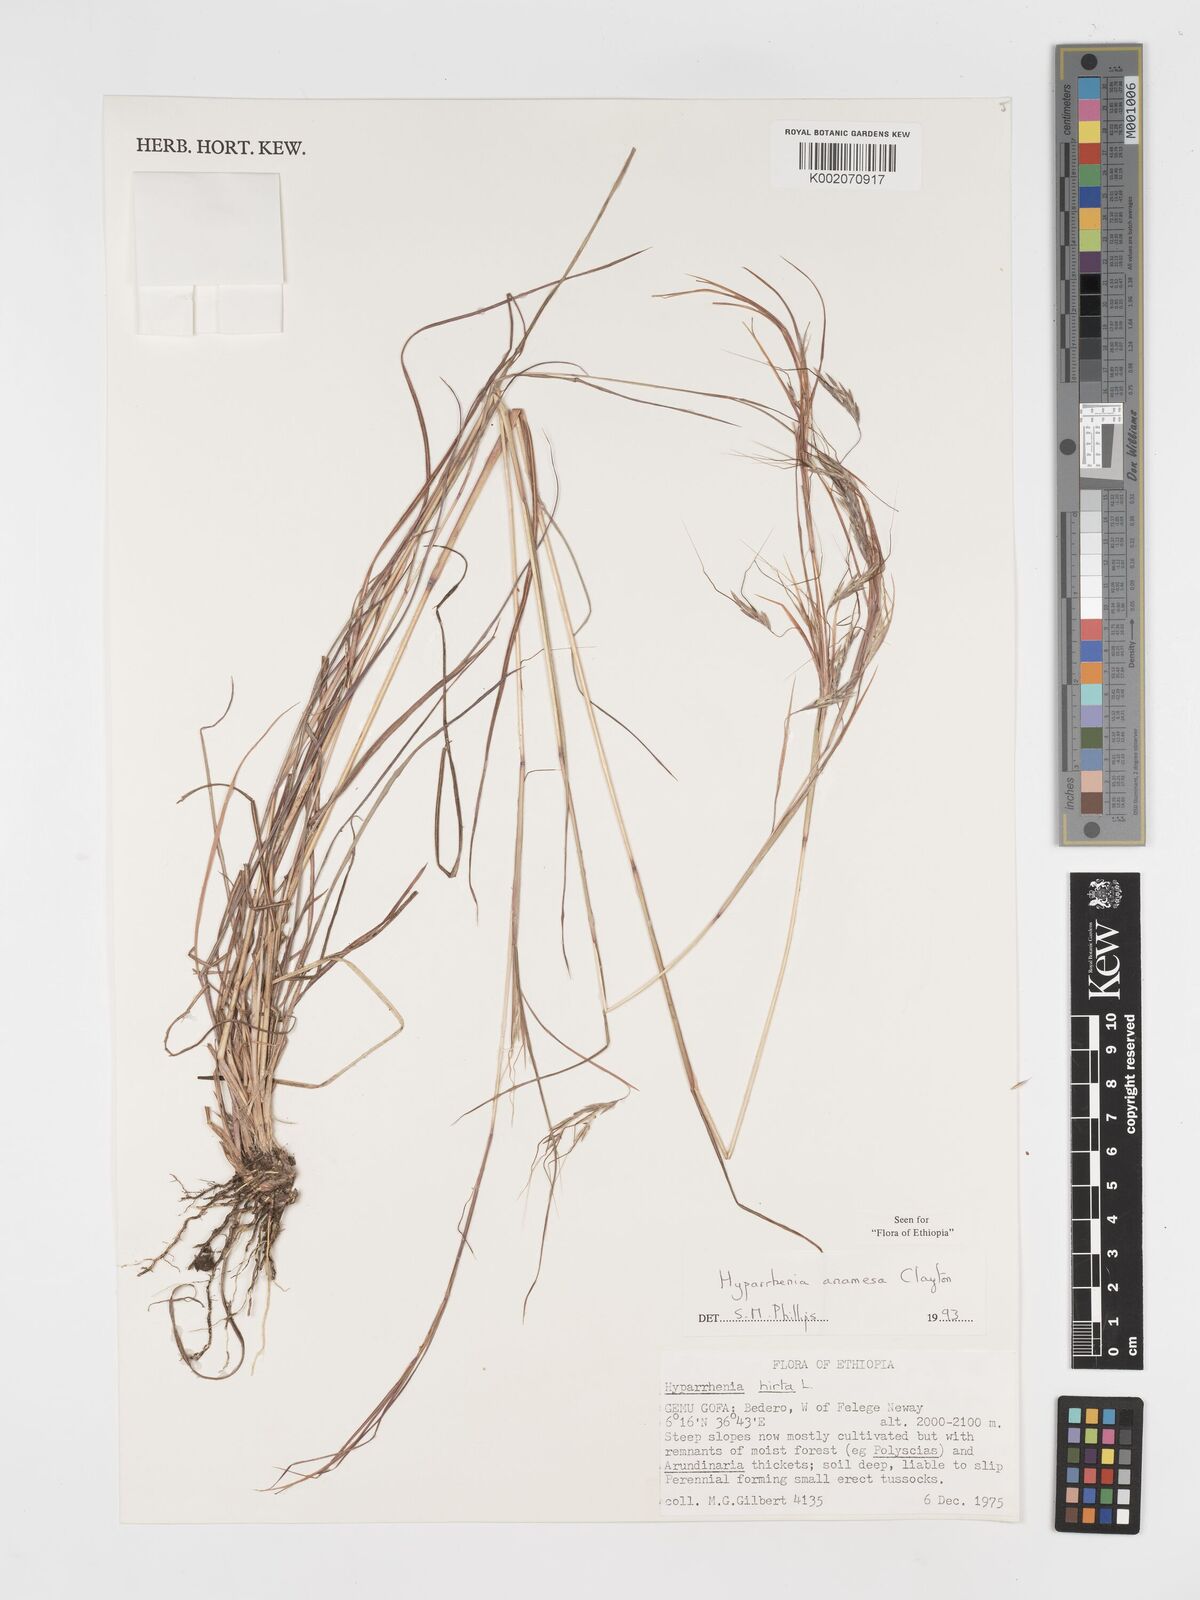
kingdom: Plantae
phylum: Tracheophyta
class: Liliopsida
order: Poales
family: Poaceae
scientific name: Poaceae
